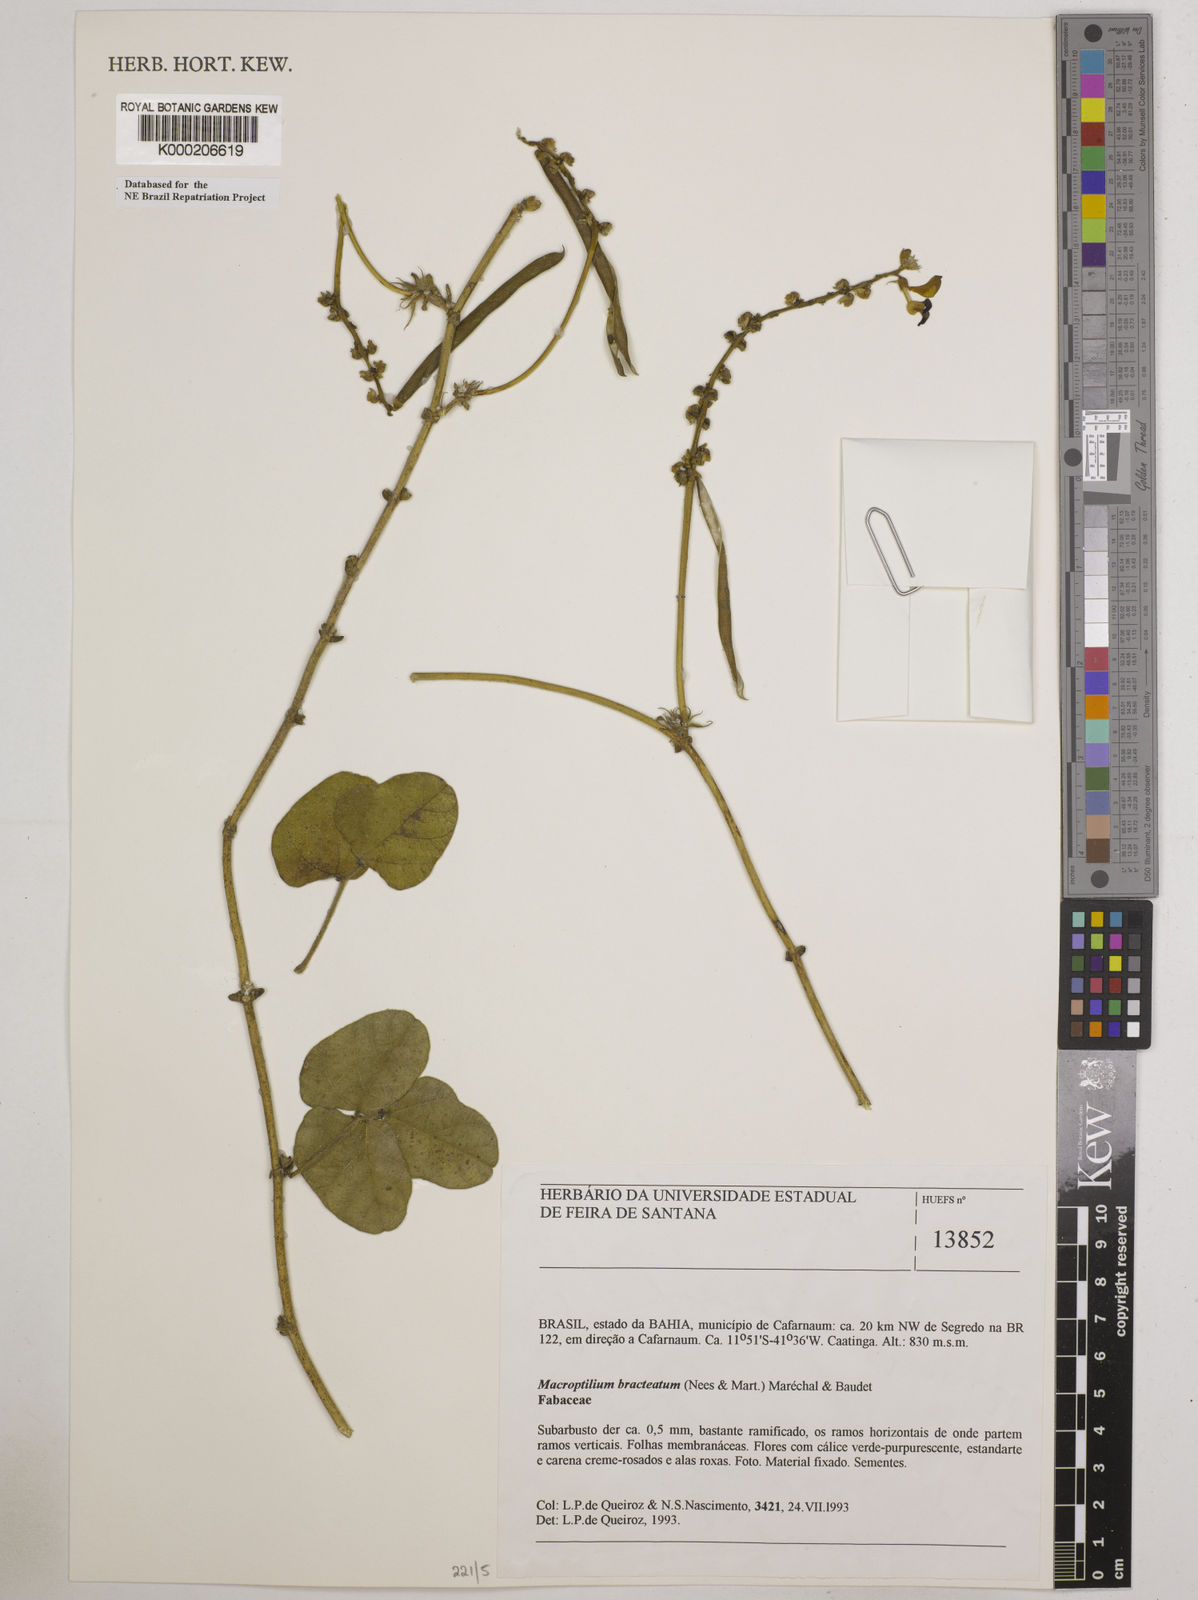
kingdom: Plantae
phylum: Tracheophyta
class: Magnoliopsida
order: Fabales
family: Fabaceae
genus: Macroptilium
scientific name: Macroptilium
